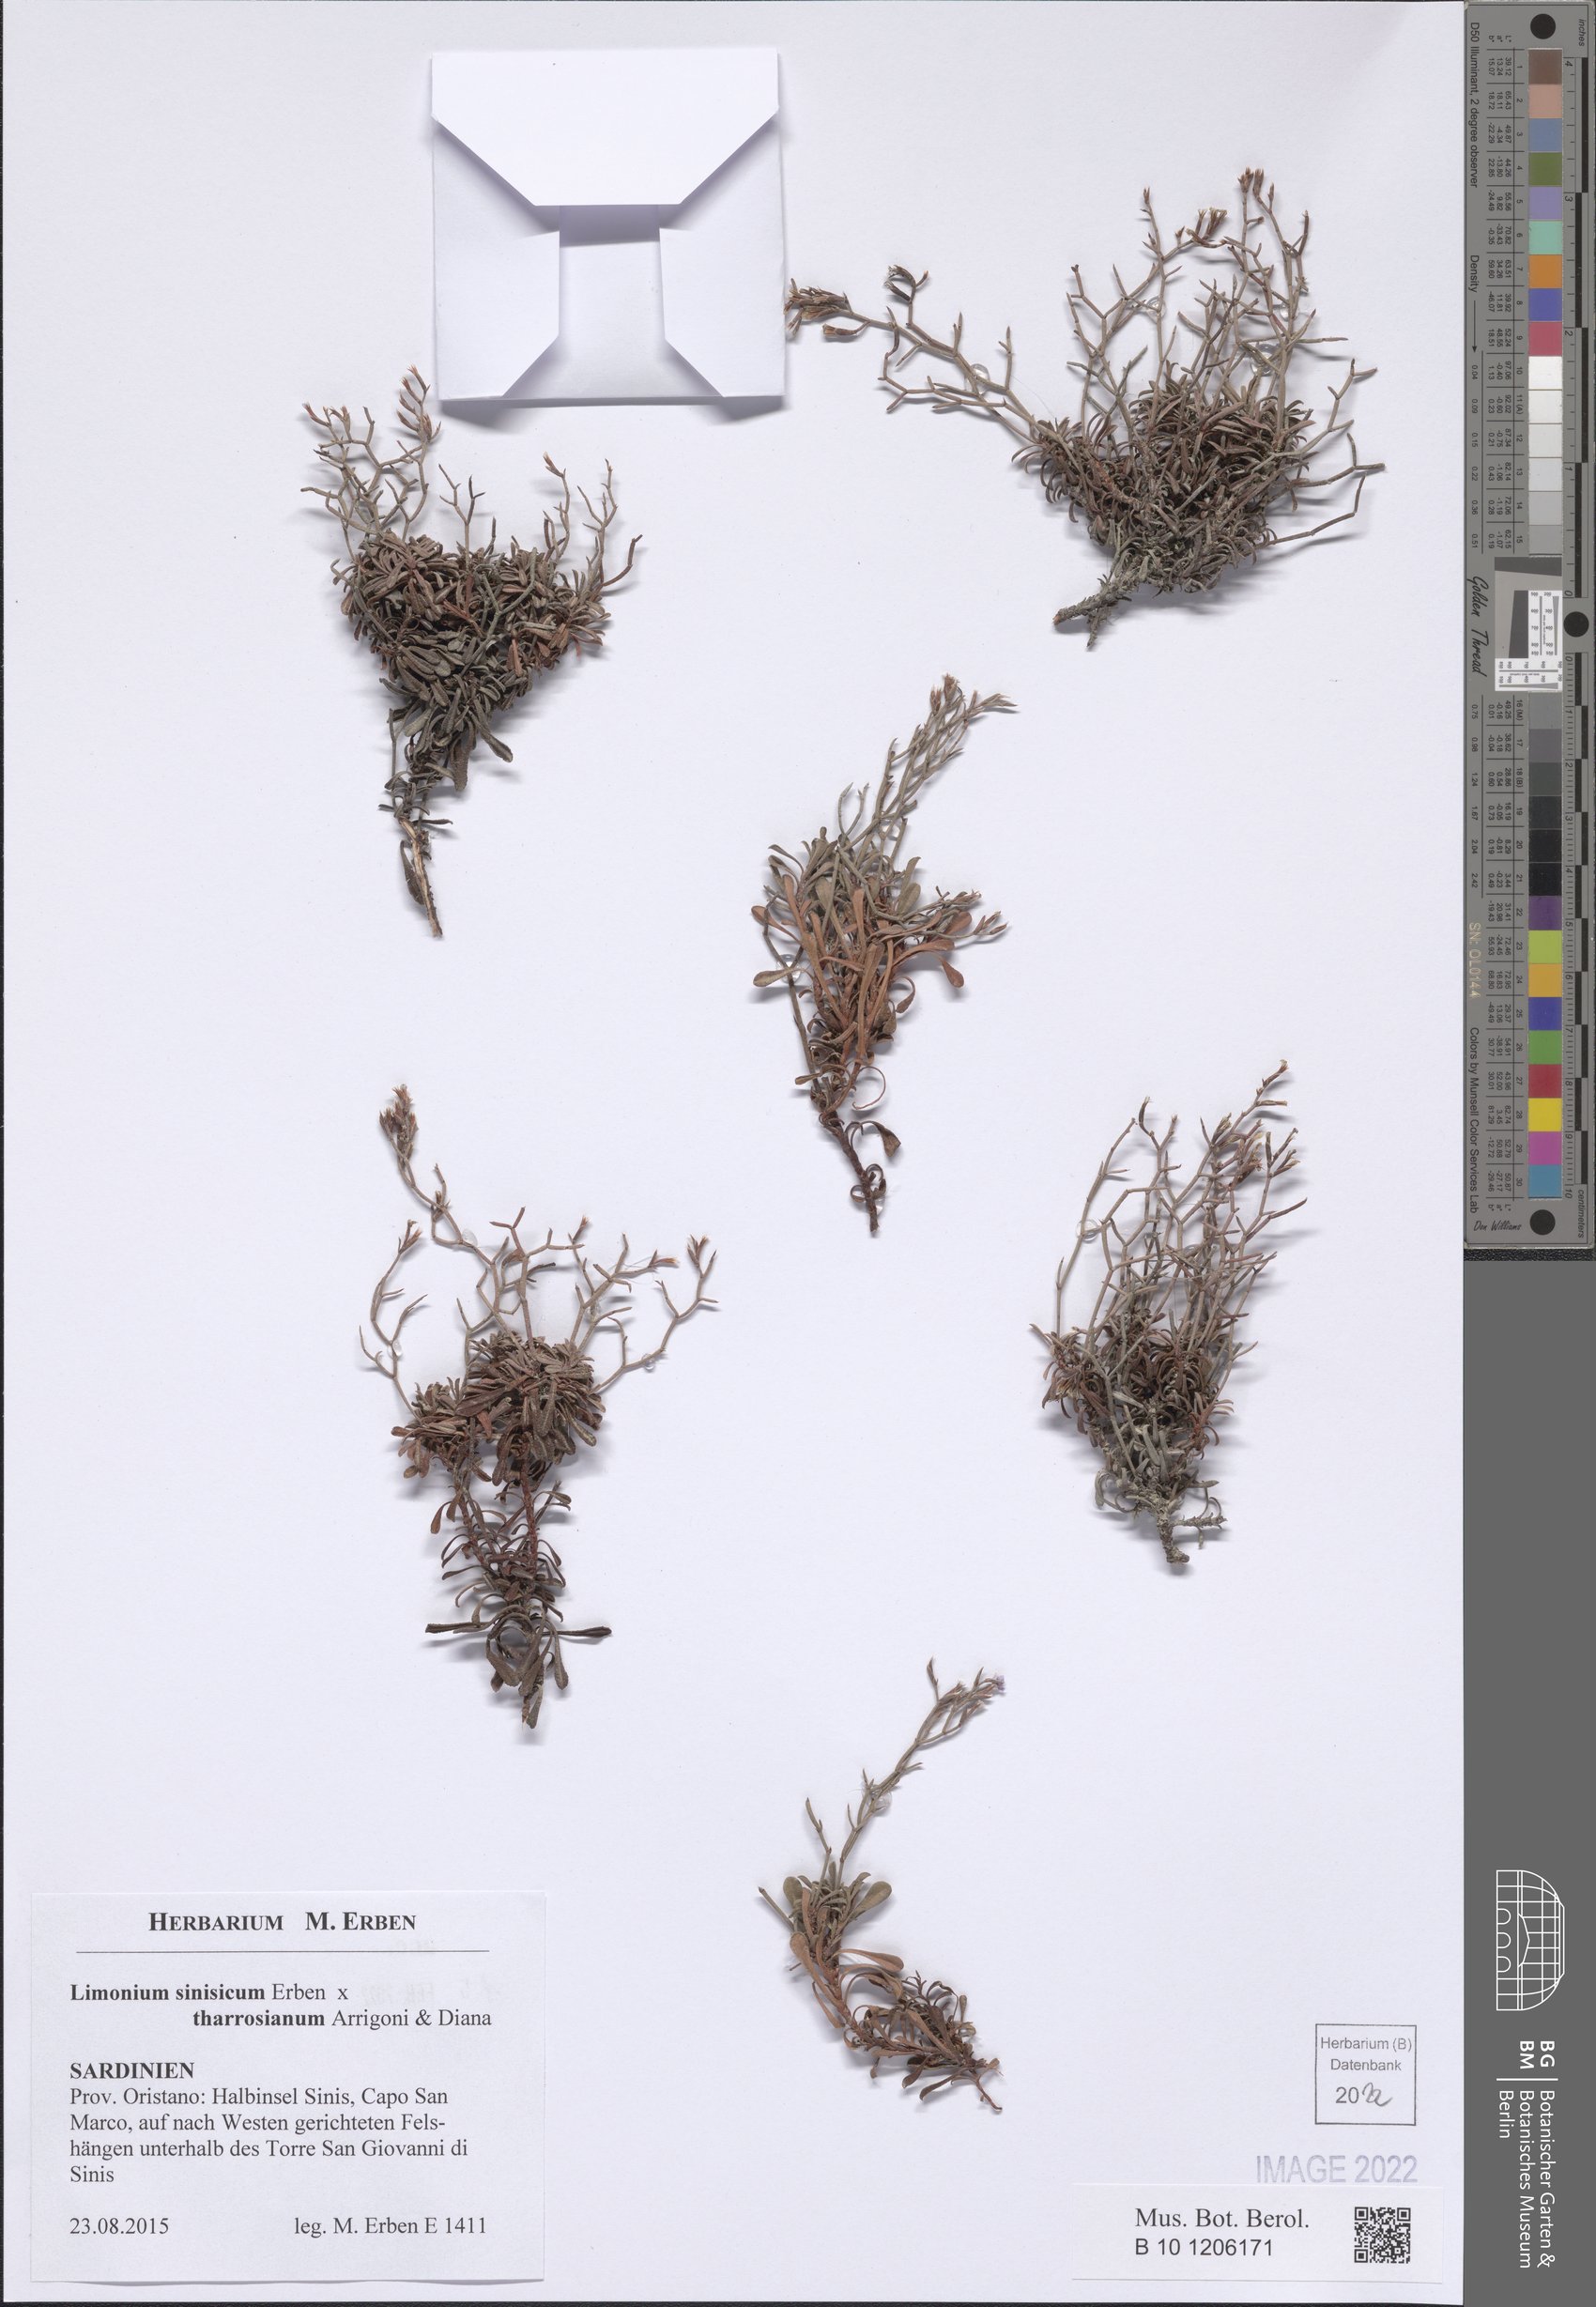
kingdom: Plantae
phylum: Tracheophyta
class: Magnoliopsida
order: Caryophyllales
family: Plumbaginaceae
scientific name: Plumbaginaceae
